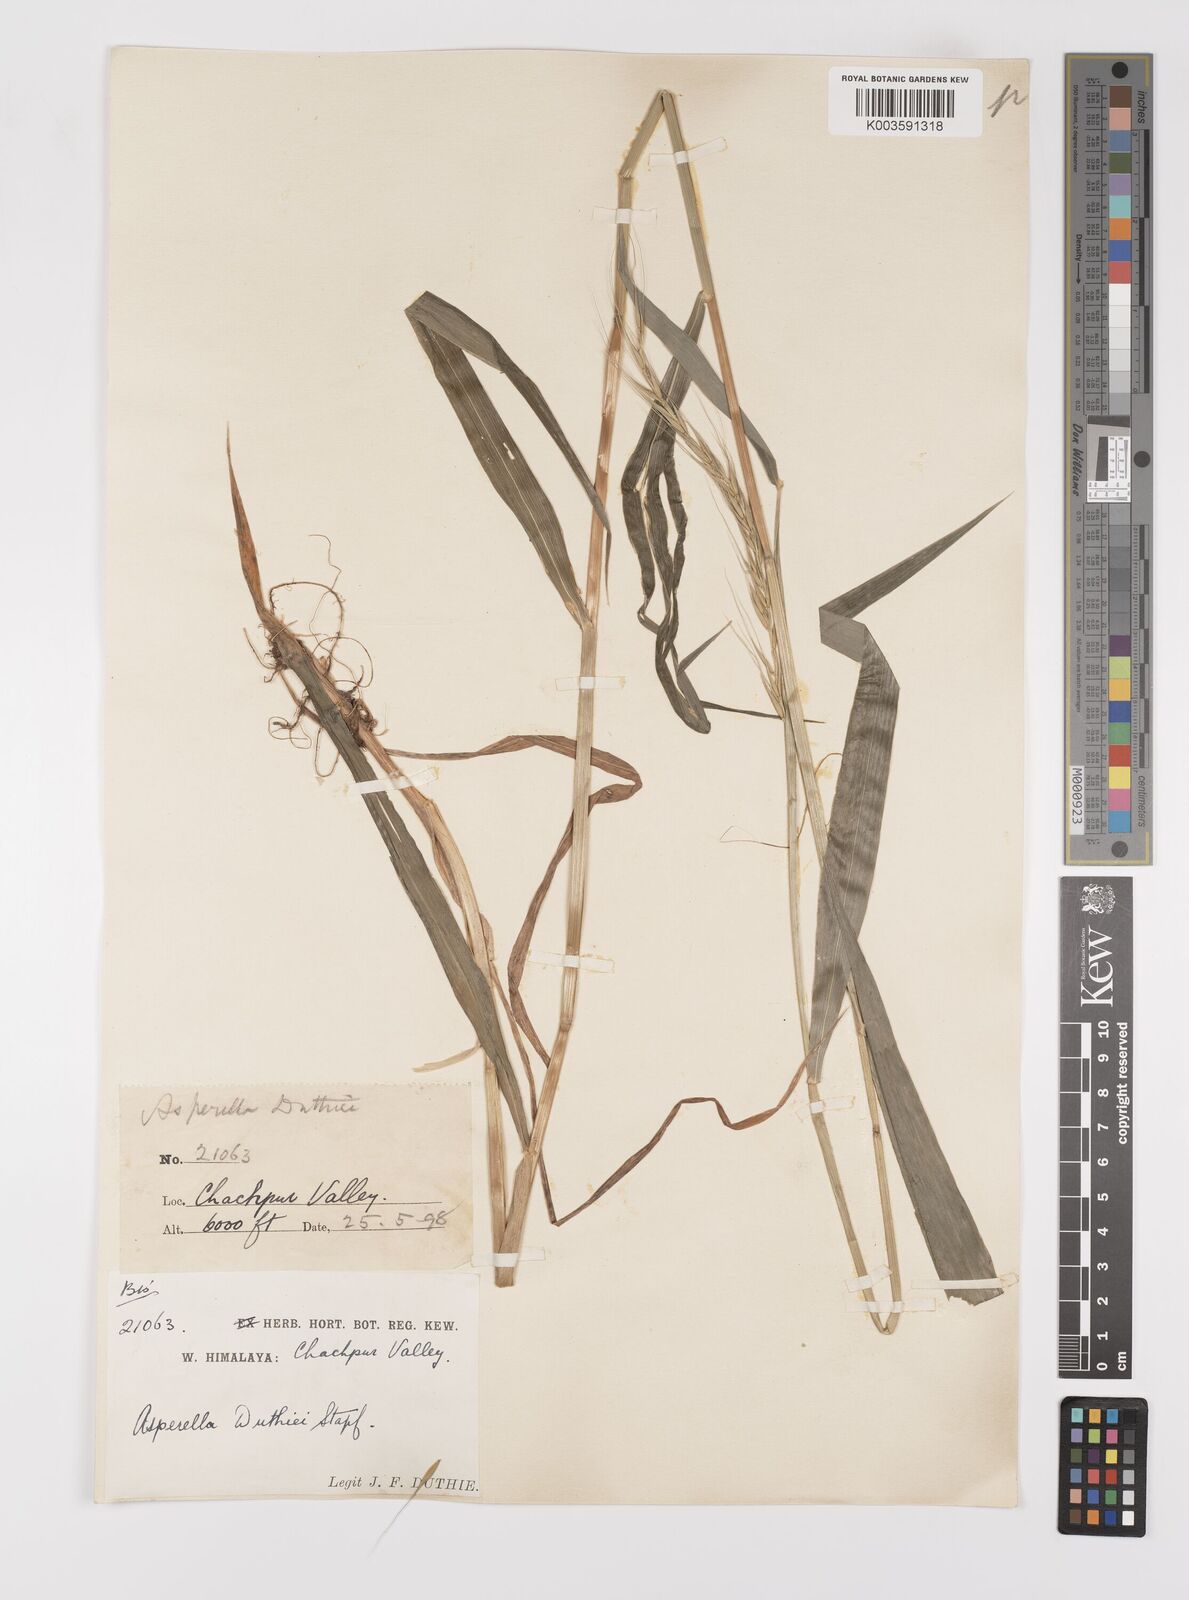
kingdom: Plantae
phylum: Tracheophyta
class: Liliopsida
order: Poales
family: Poaceae
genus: Leymus
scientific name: Leymus duthiei
